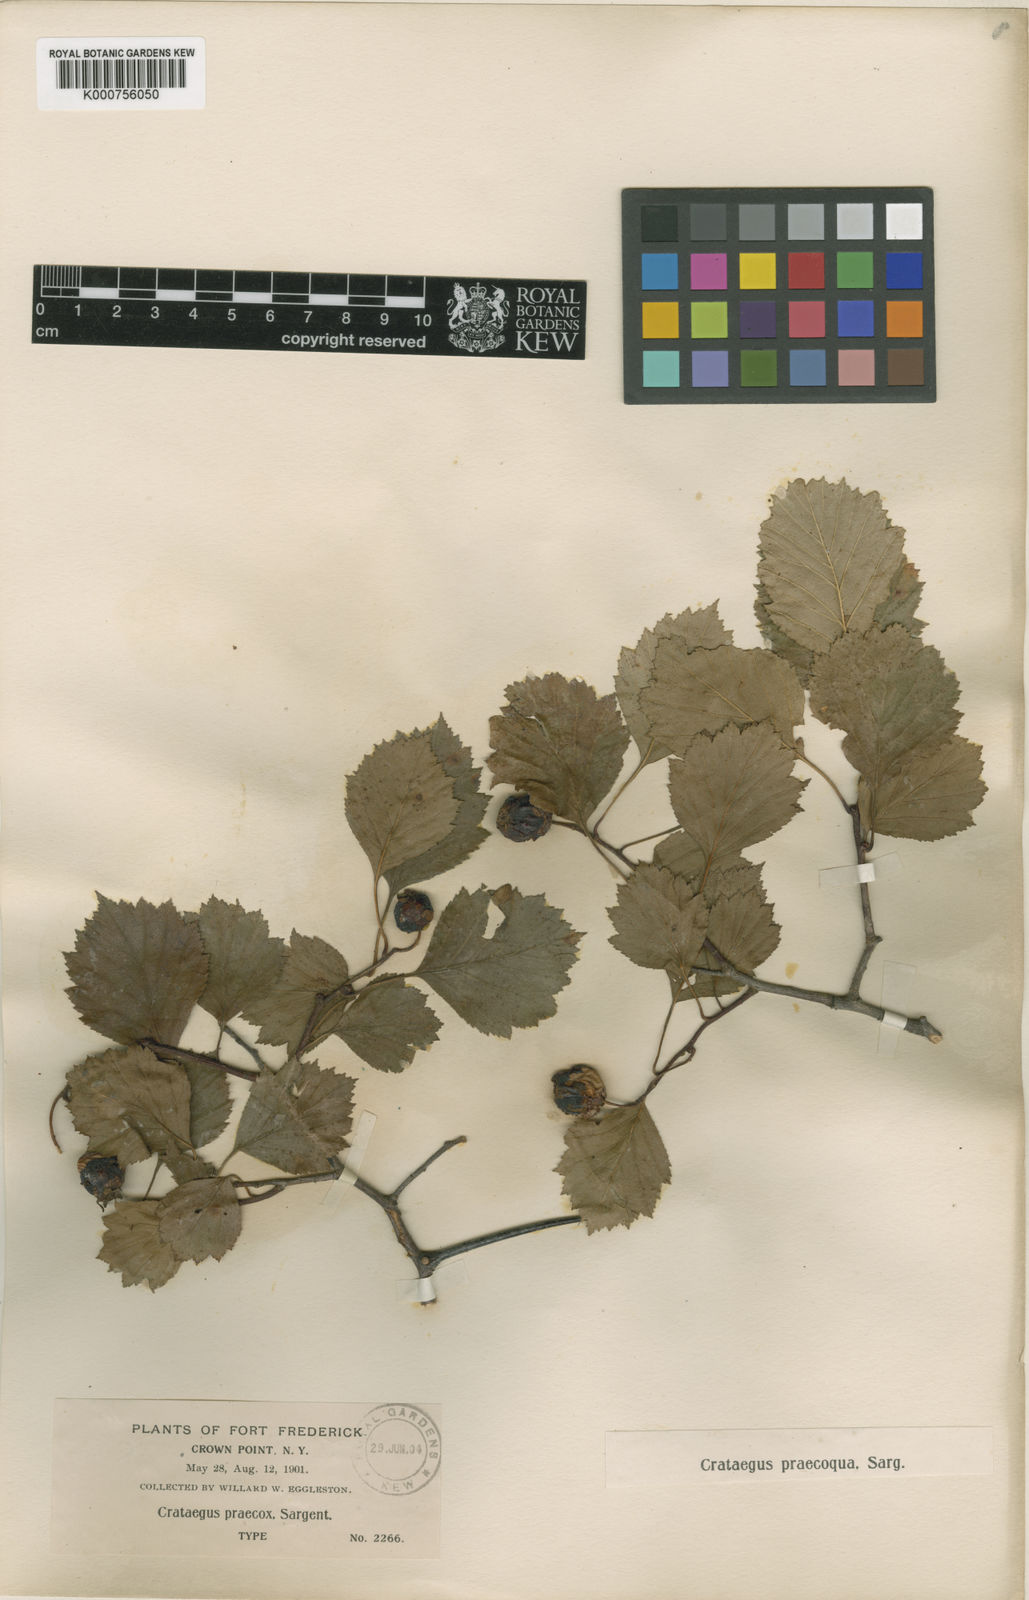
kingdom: Plantae
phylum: Tracheophyta
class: Magnoliopsida
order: Rosales
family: Rosaceae
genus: Crataegus
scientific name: Crataegus chrysocarpa
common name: Fire-berry hawthorn
